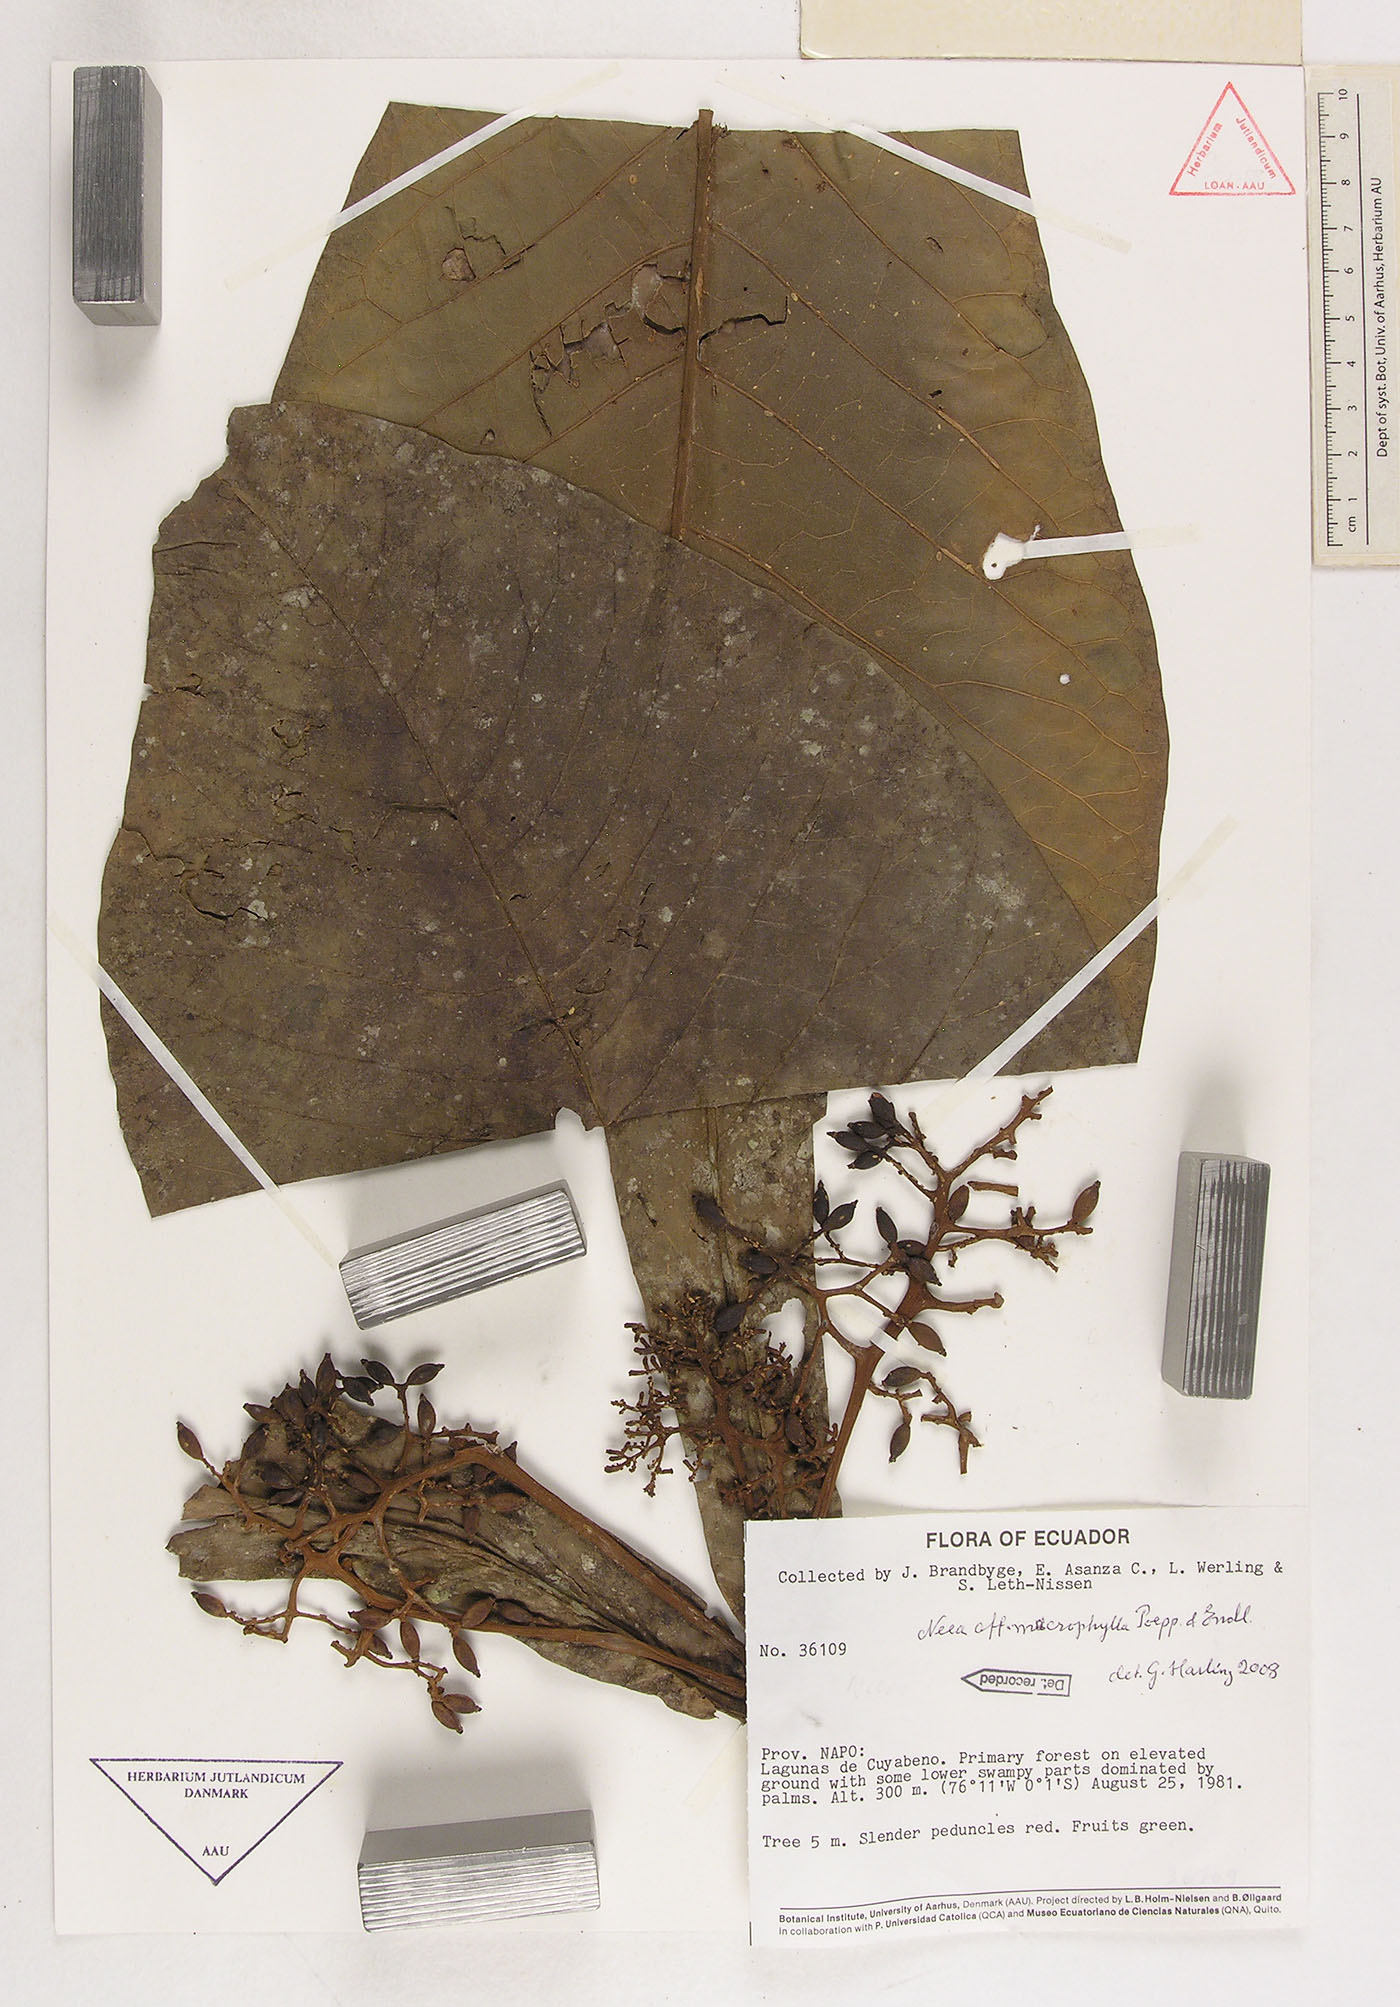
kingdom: Plantae
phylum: Tracheophyta
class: Magnoliopsida
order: Caryophyllales
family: Nyctaginaceae
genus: Neea
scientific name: Neea macrophylla
